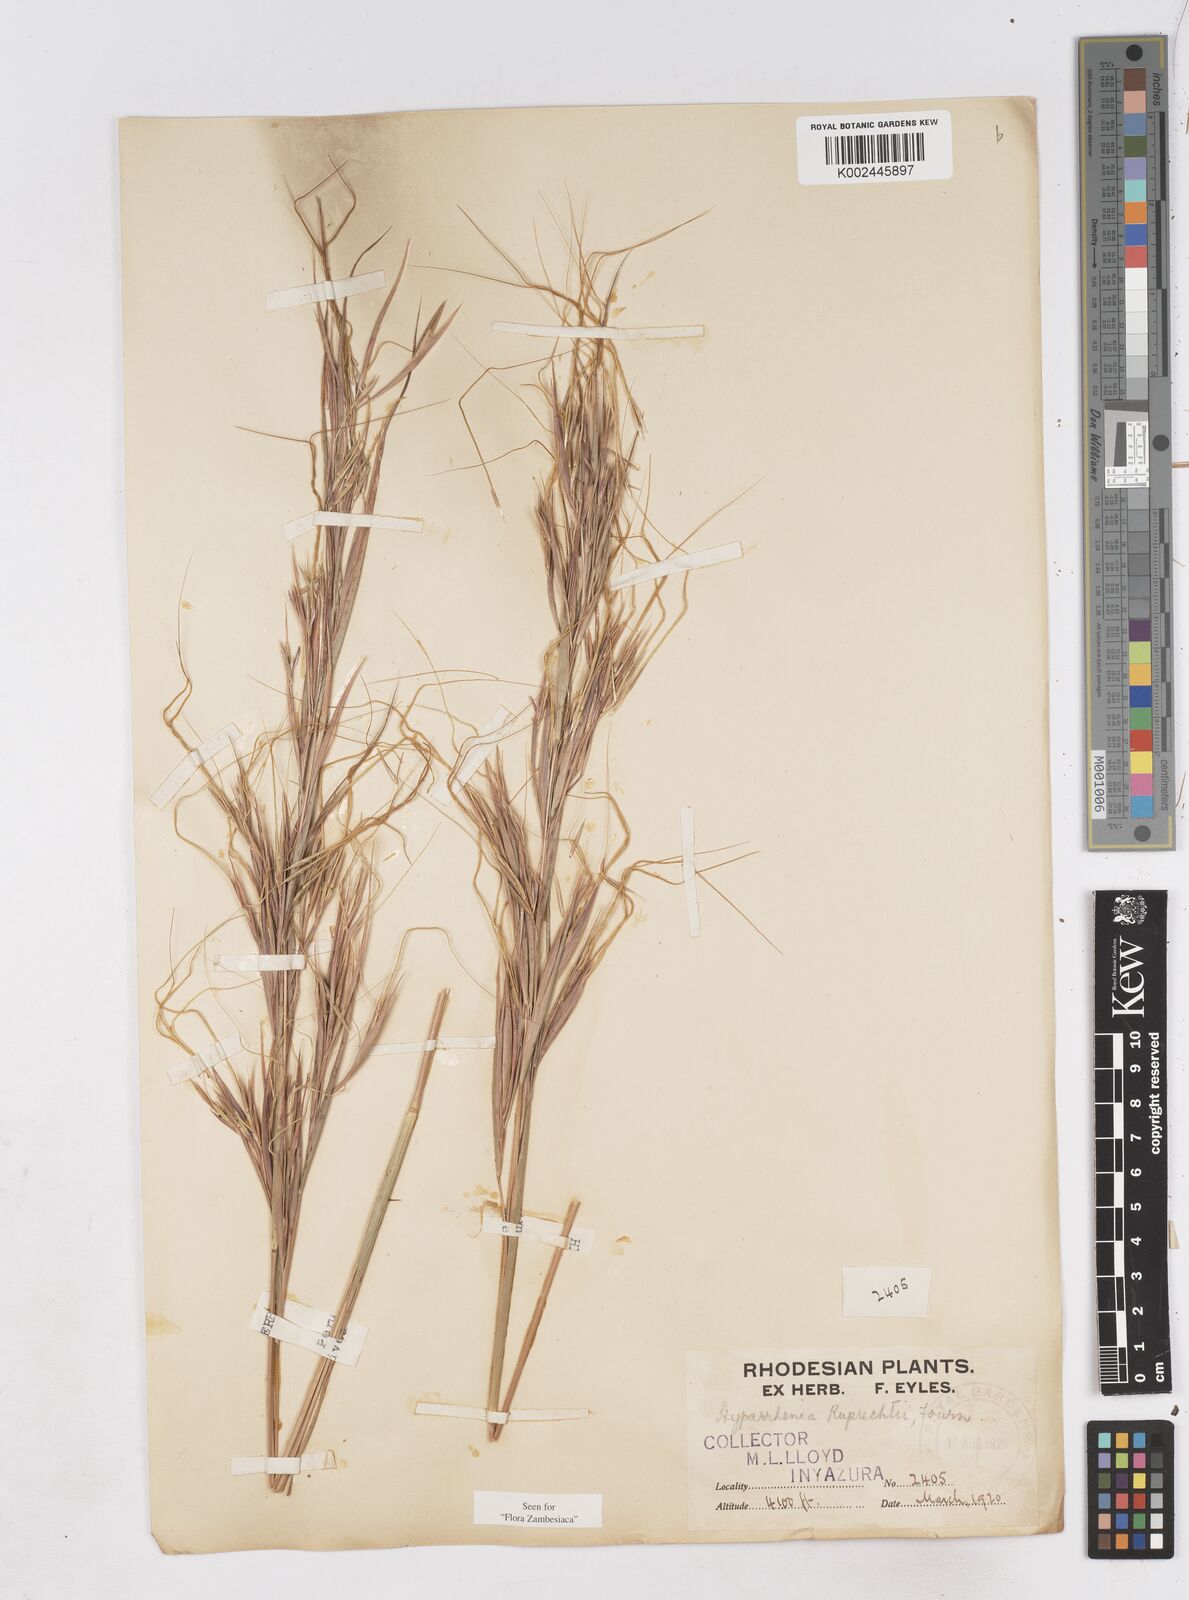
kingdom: Plantae
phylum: Tracheophyta
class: Liliopsida
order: Poales
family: Poaceae
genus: Hyperthelia
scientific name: Hyperthelia dissoluta
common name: Yellow thatching grass
